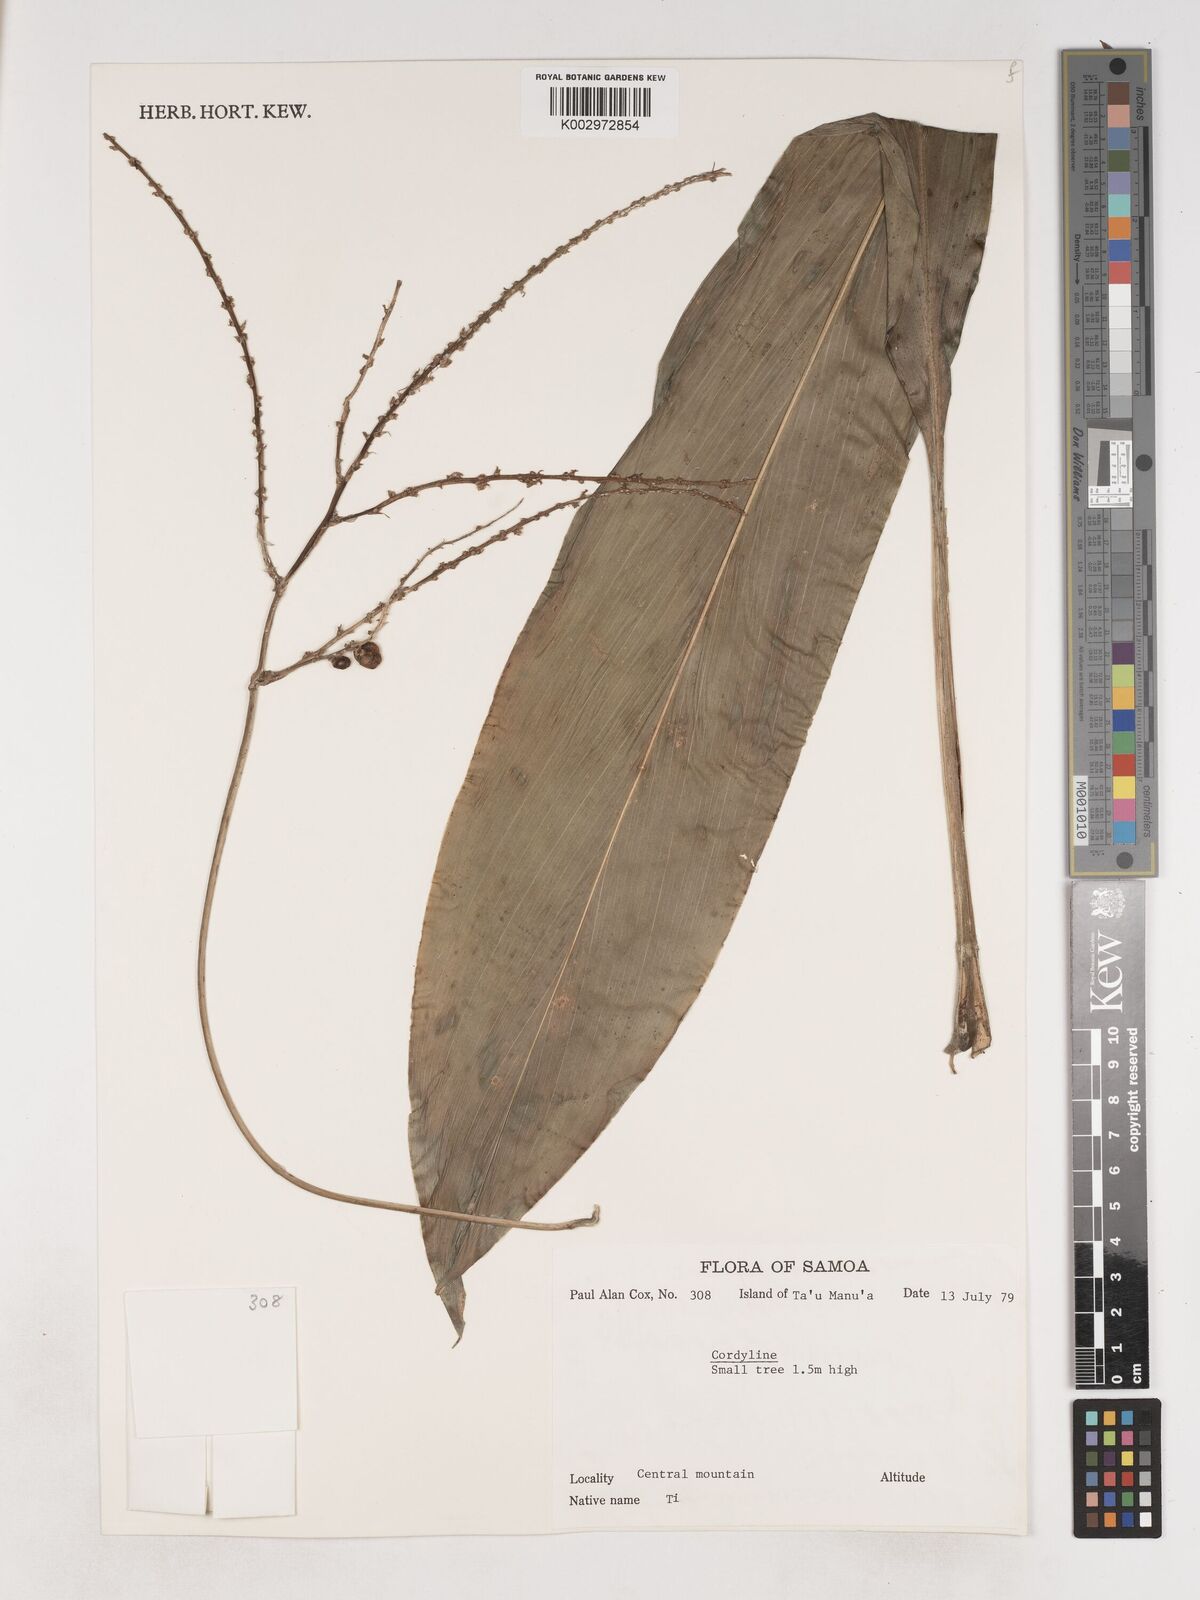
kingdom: Plantae
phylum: Tracheophyta
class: Liliopsida
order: Asparagales
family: Asparagaceae
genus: Cordyline
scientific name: Cordyline fruticosa
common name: Good-luck-plant
